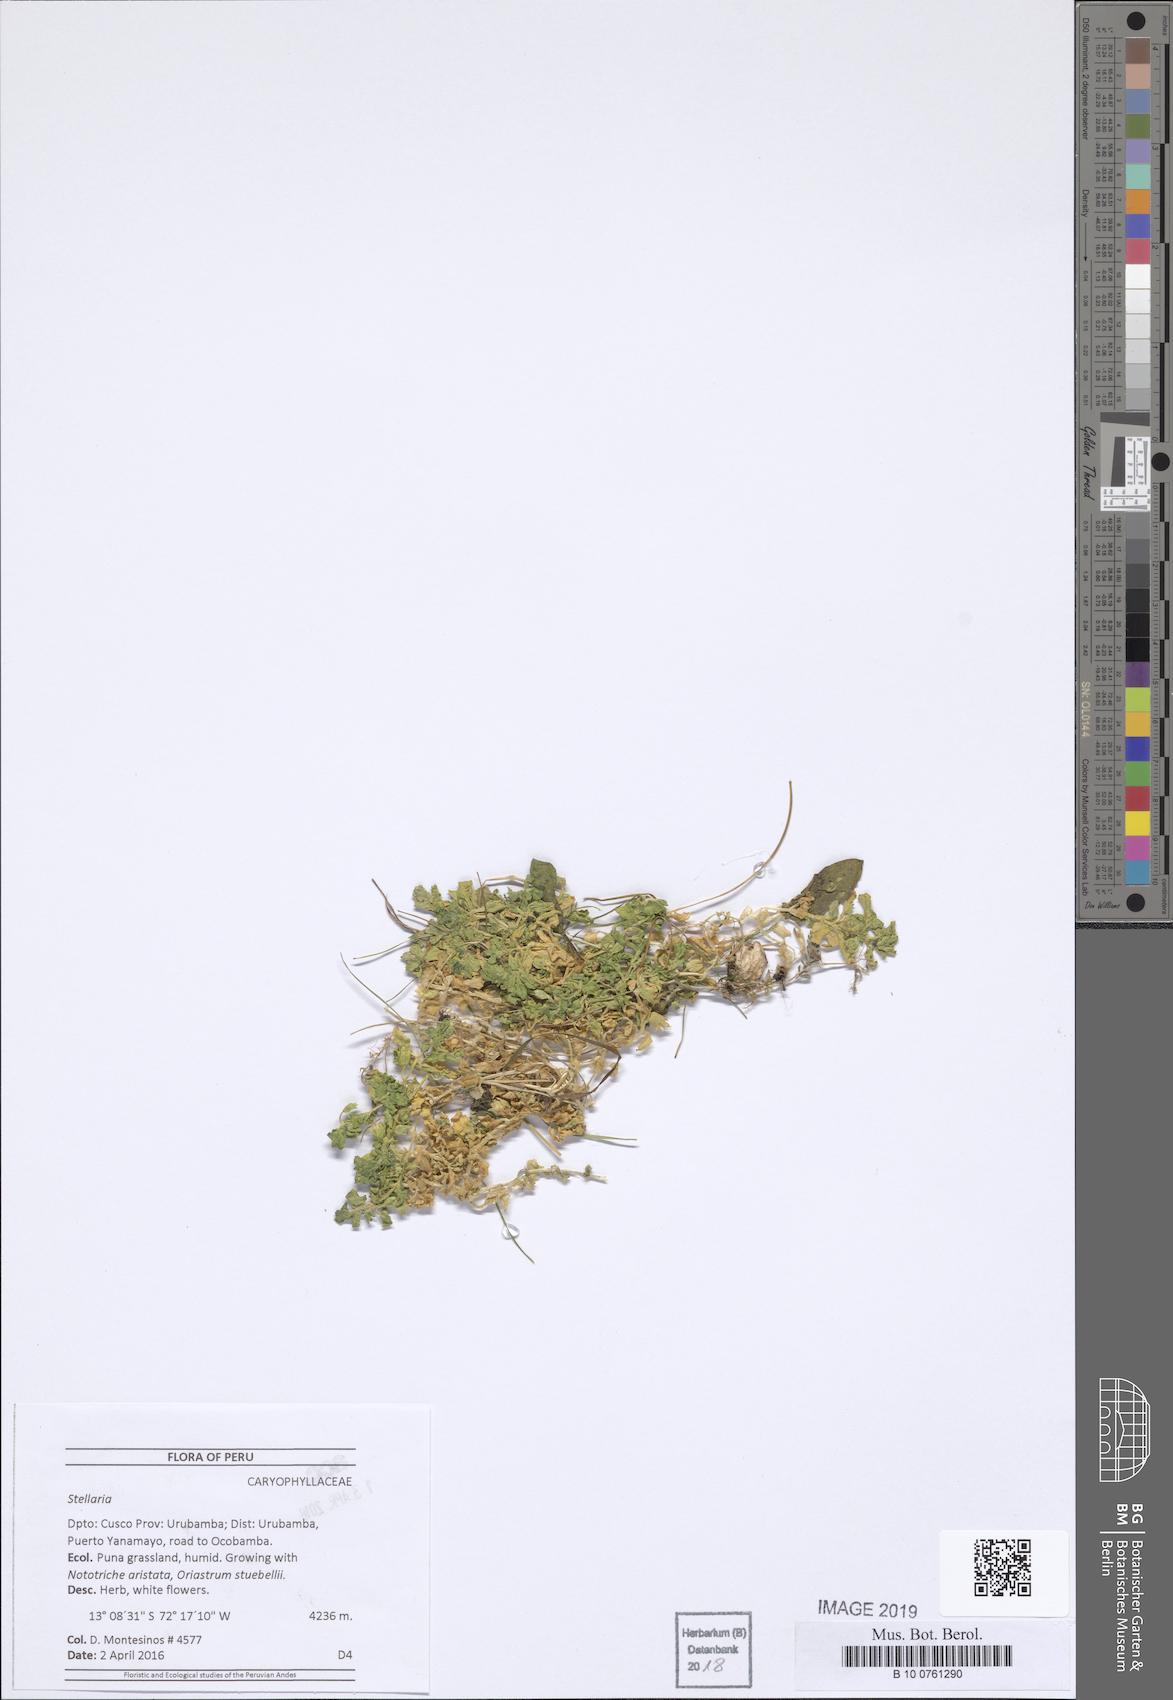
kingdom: Plantae
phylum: Tracheophyta
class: Magnoliopsida
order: Caryophyllales
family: Caryophyllaceae
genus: Stellaria
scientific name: Stellaria
